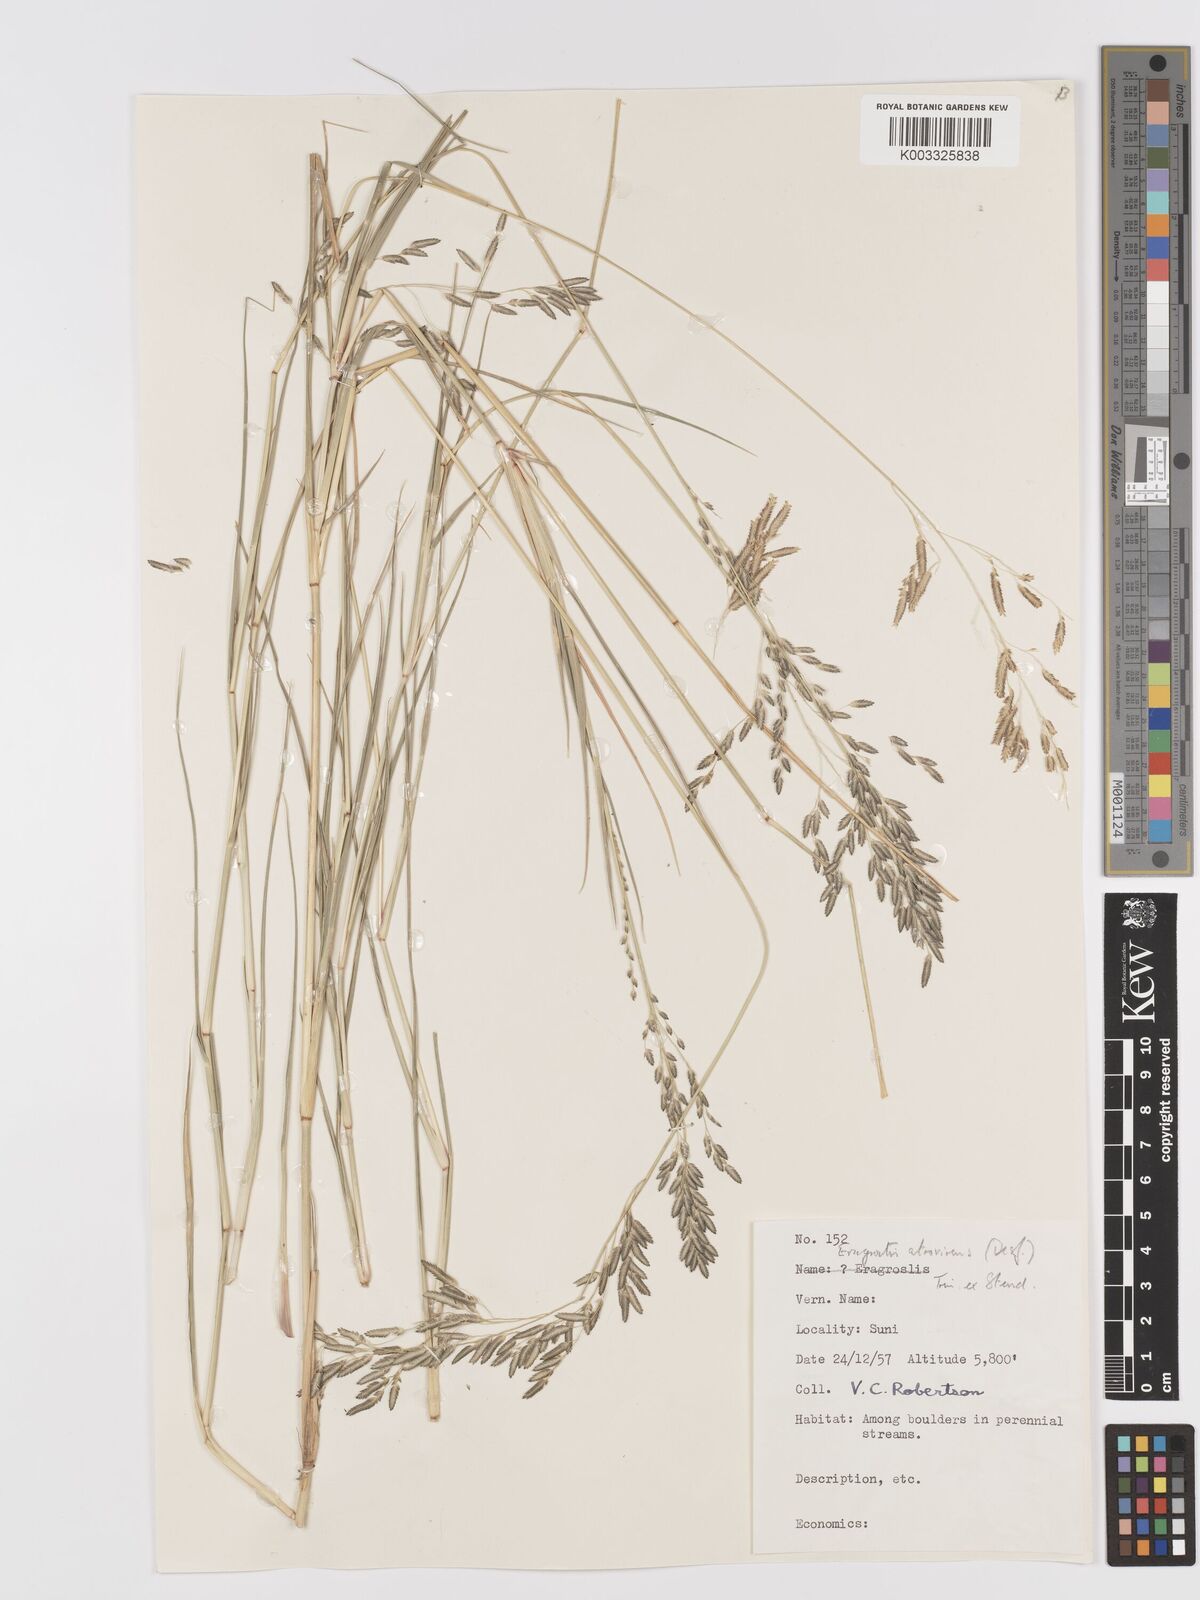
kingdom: Plantae
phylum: Tracheophyta
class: Liliopsida
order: Poales
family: Poaceae
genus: Eragrostis
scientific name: Eragrostis atrovirens
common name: Thalia lovegrass
